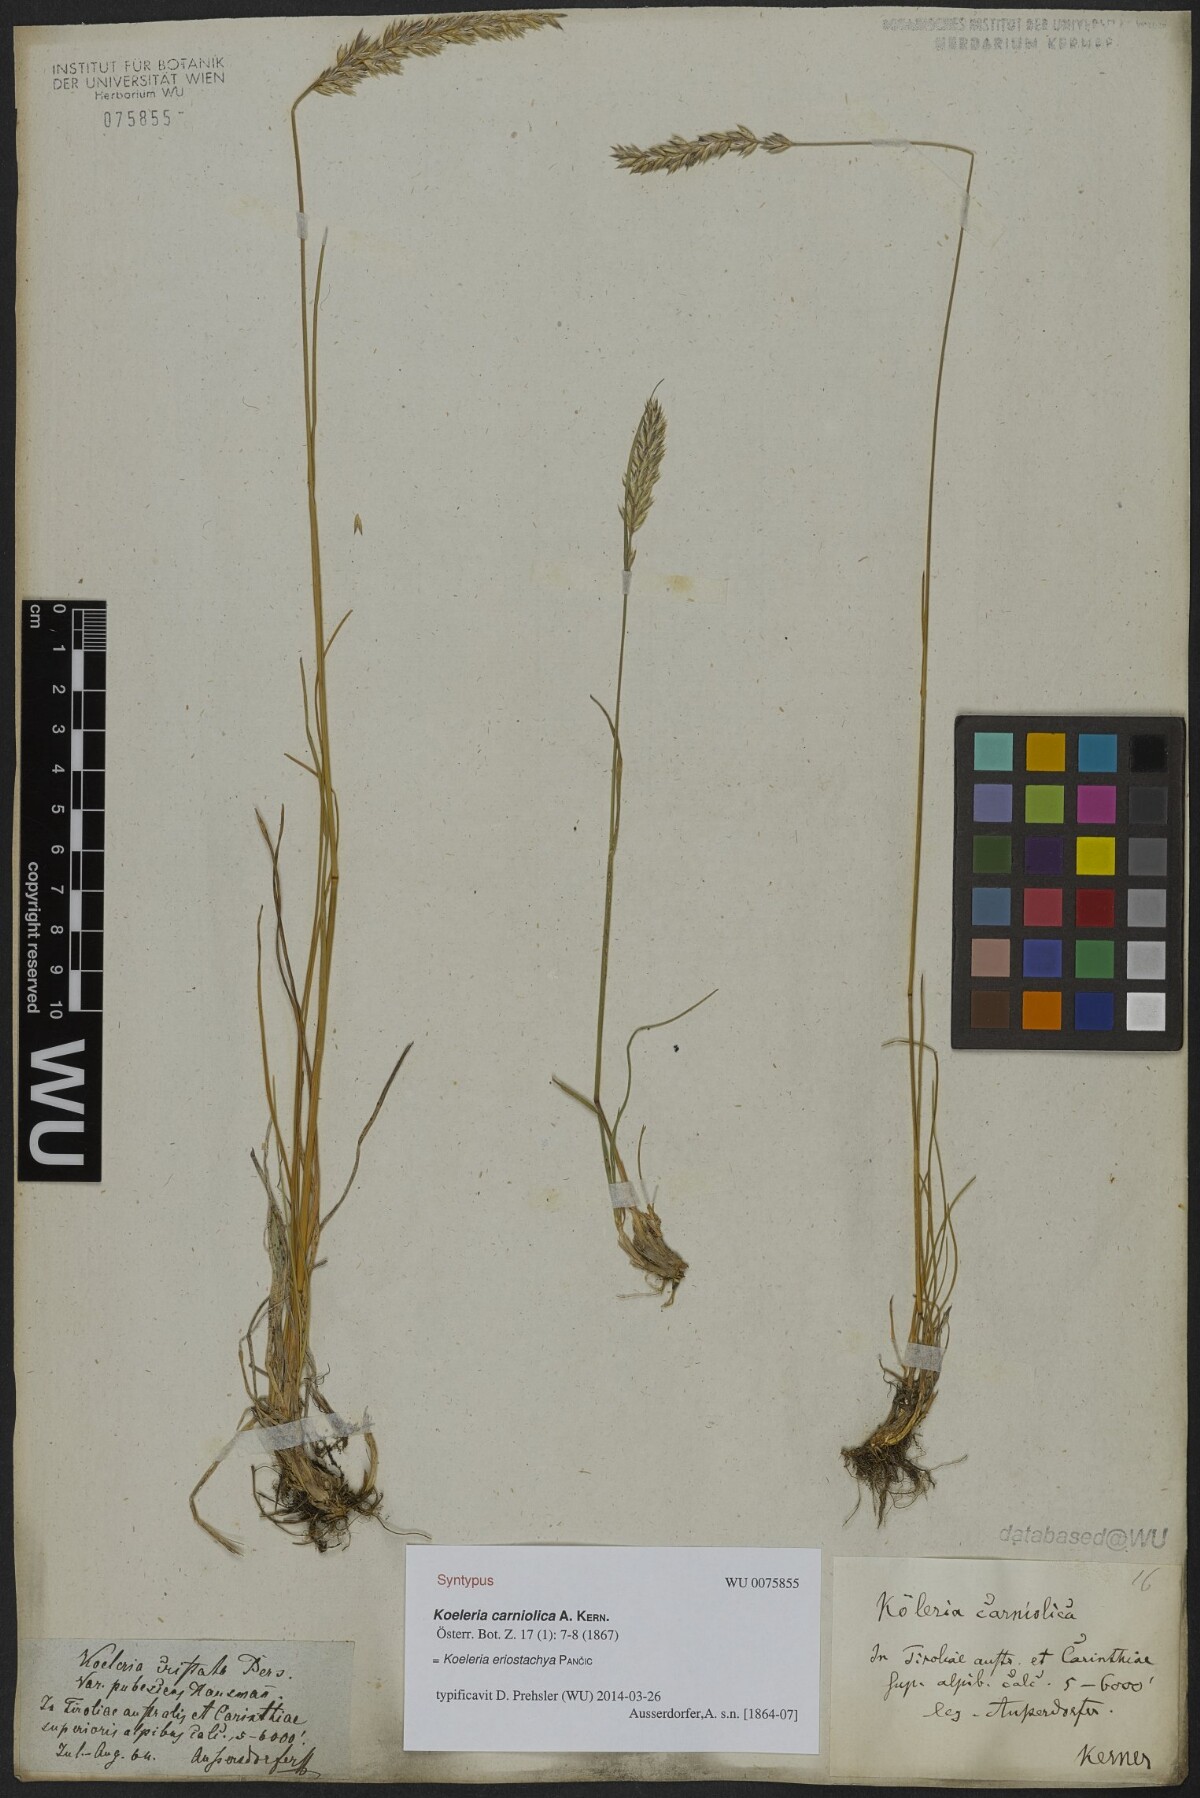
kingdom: Plantae
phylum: Tracheophyta
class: Liliopsida
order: Poales
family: Poaceae
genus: Koeleria
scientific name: Koeleria eriostachya
